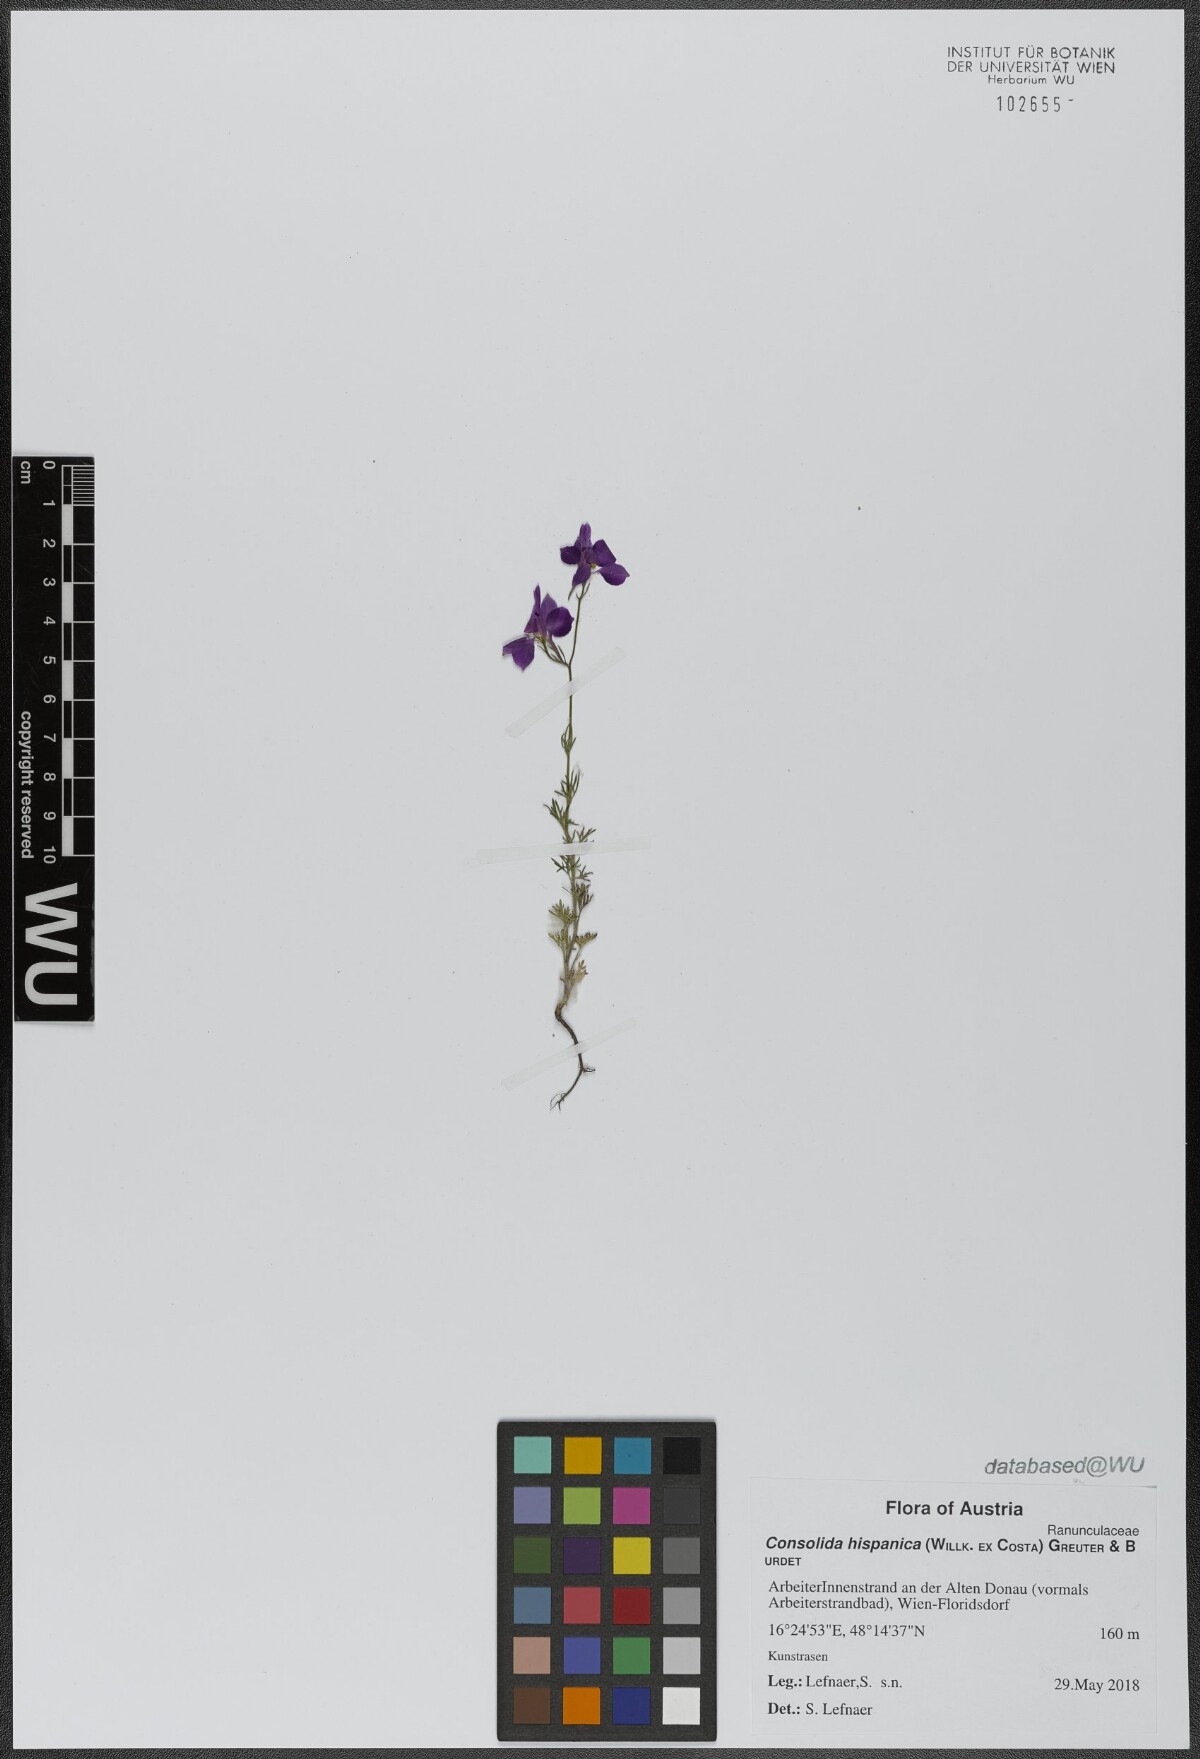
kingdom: Plantae
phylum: Tracheophyta
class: Magnoliopsida
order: Ranunculales
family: Ranunculaceae
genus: Delphinium
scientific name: Delphinium hispanicum
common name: Oriental knight's-spur
